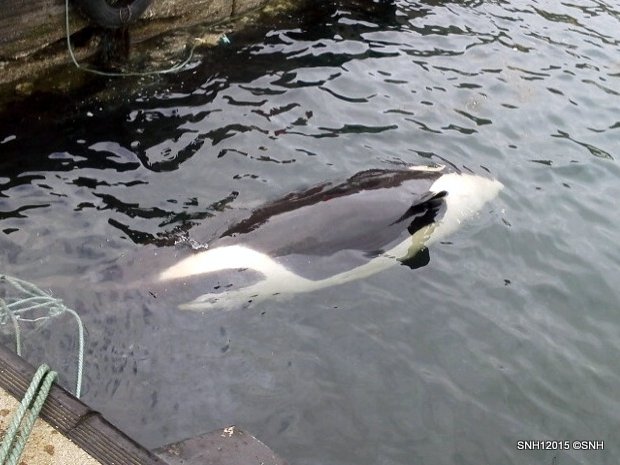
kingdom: Animalia
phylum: Chordata
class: Mammalia
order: Cetacea
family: Delphinidae
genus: Orcinus
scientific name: Orcinus orca
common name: Killer whale
